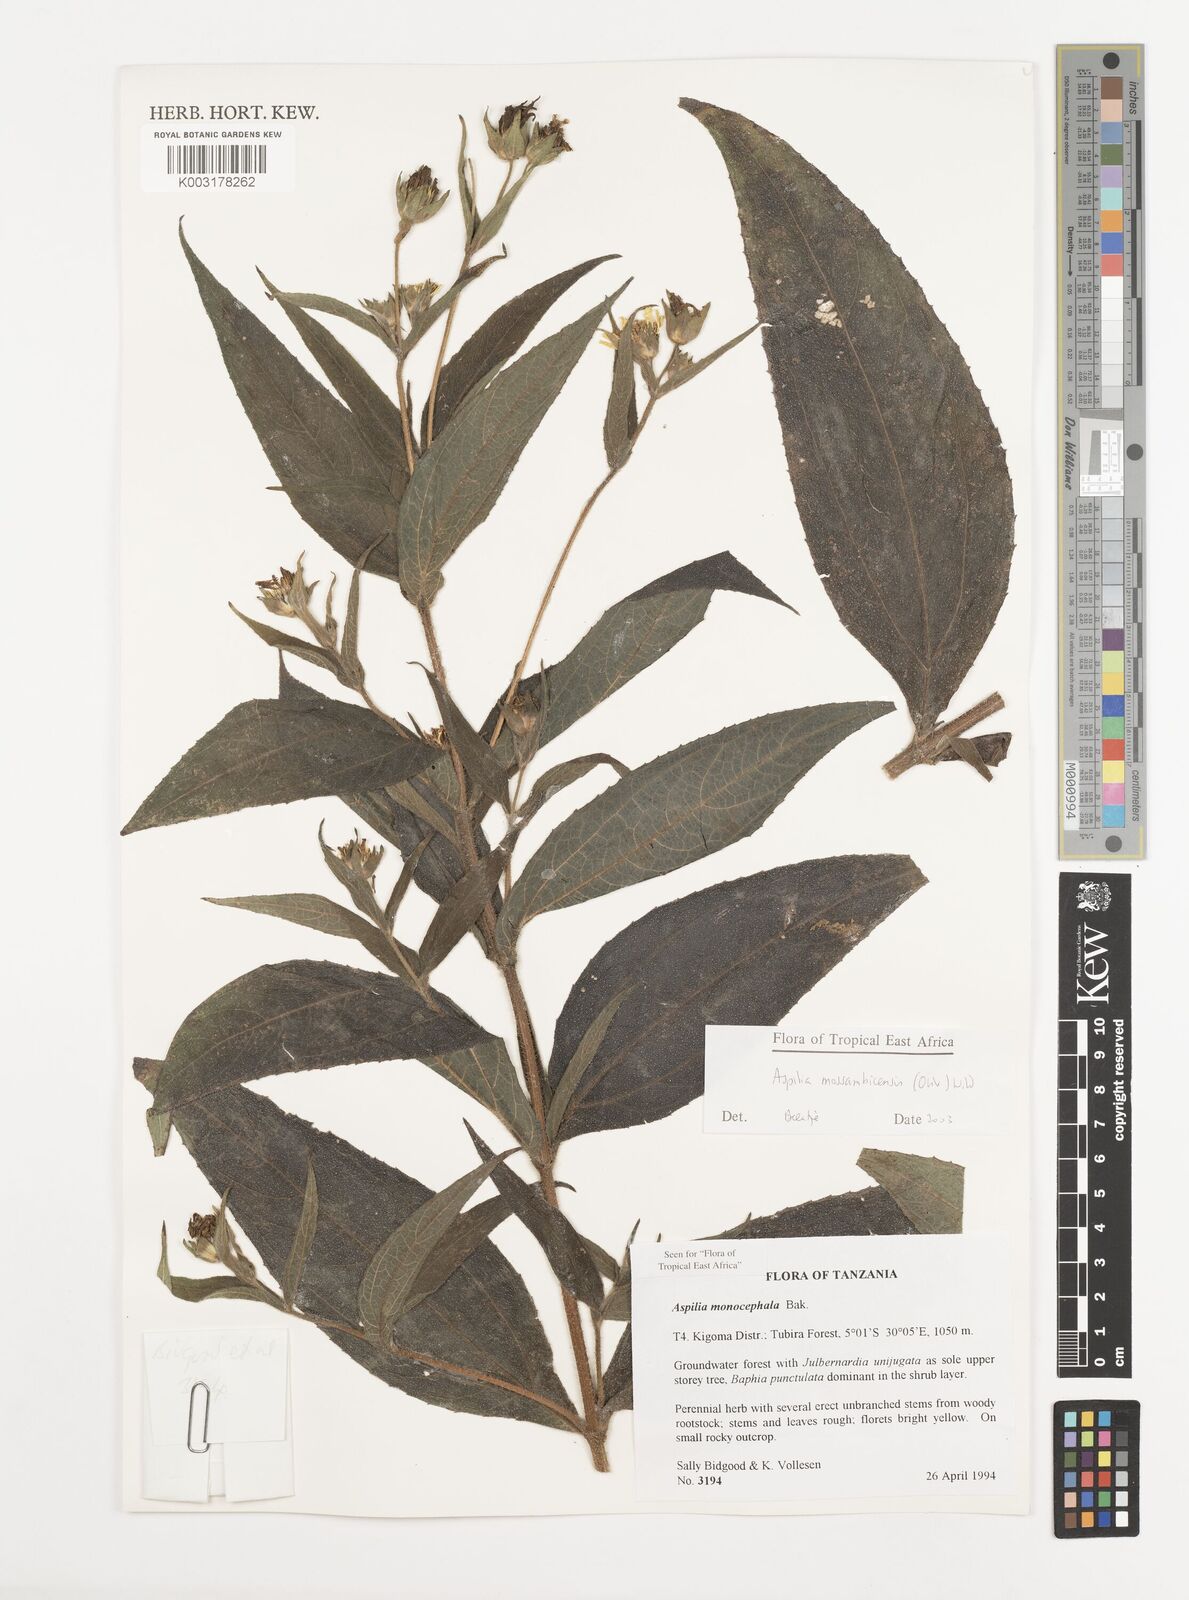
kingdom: Plantae
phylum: Tracheophyta
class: Magnoliopsida
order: Asterales
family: Asteraceae
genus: Aspilia
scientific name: Aspilia mossambicensis
